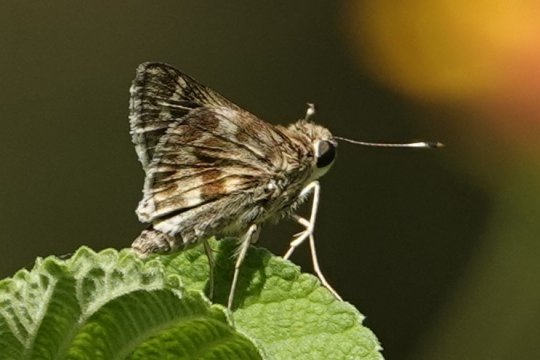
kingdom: Animalia
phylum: Arthropoda
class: Insecta
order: Lepidoptera
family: Hesperiidae
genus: Pompeius
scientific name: Pompeius pompeius
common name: Pompeius Skipper
